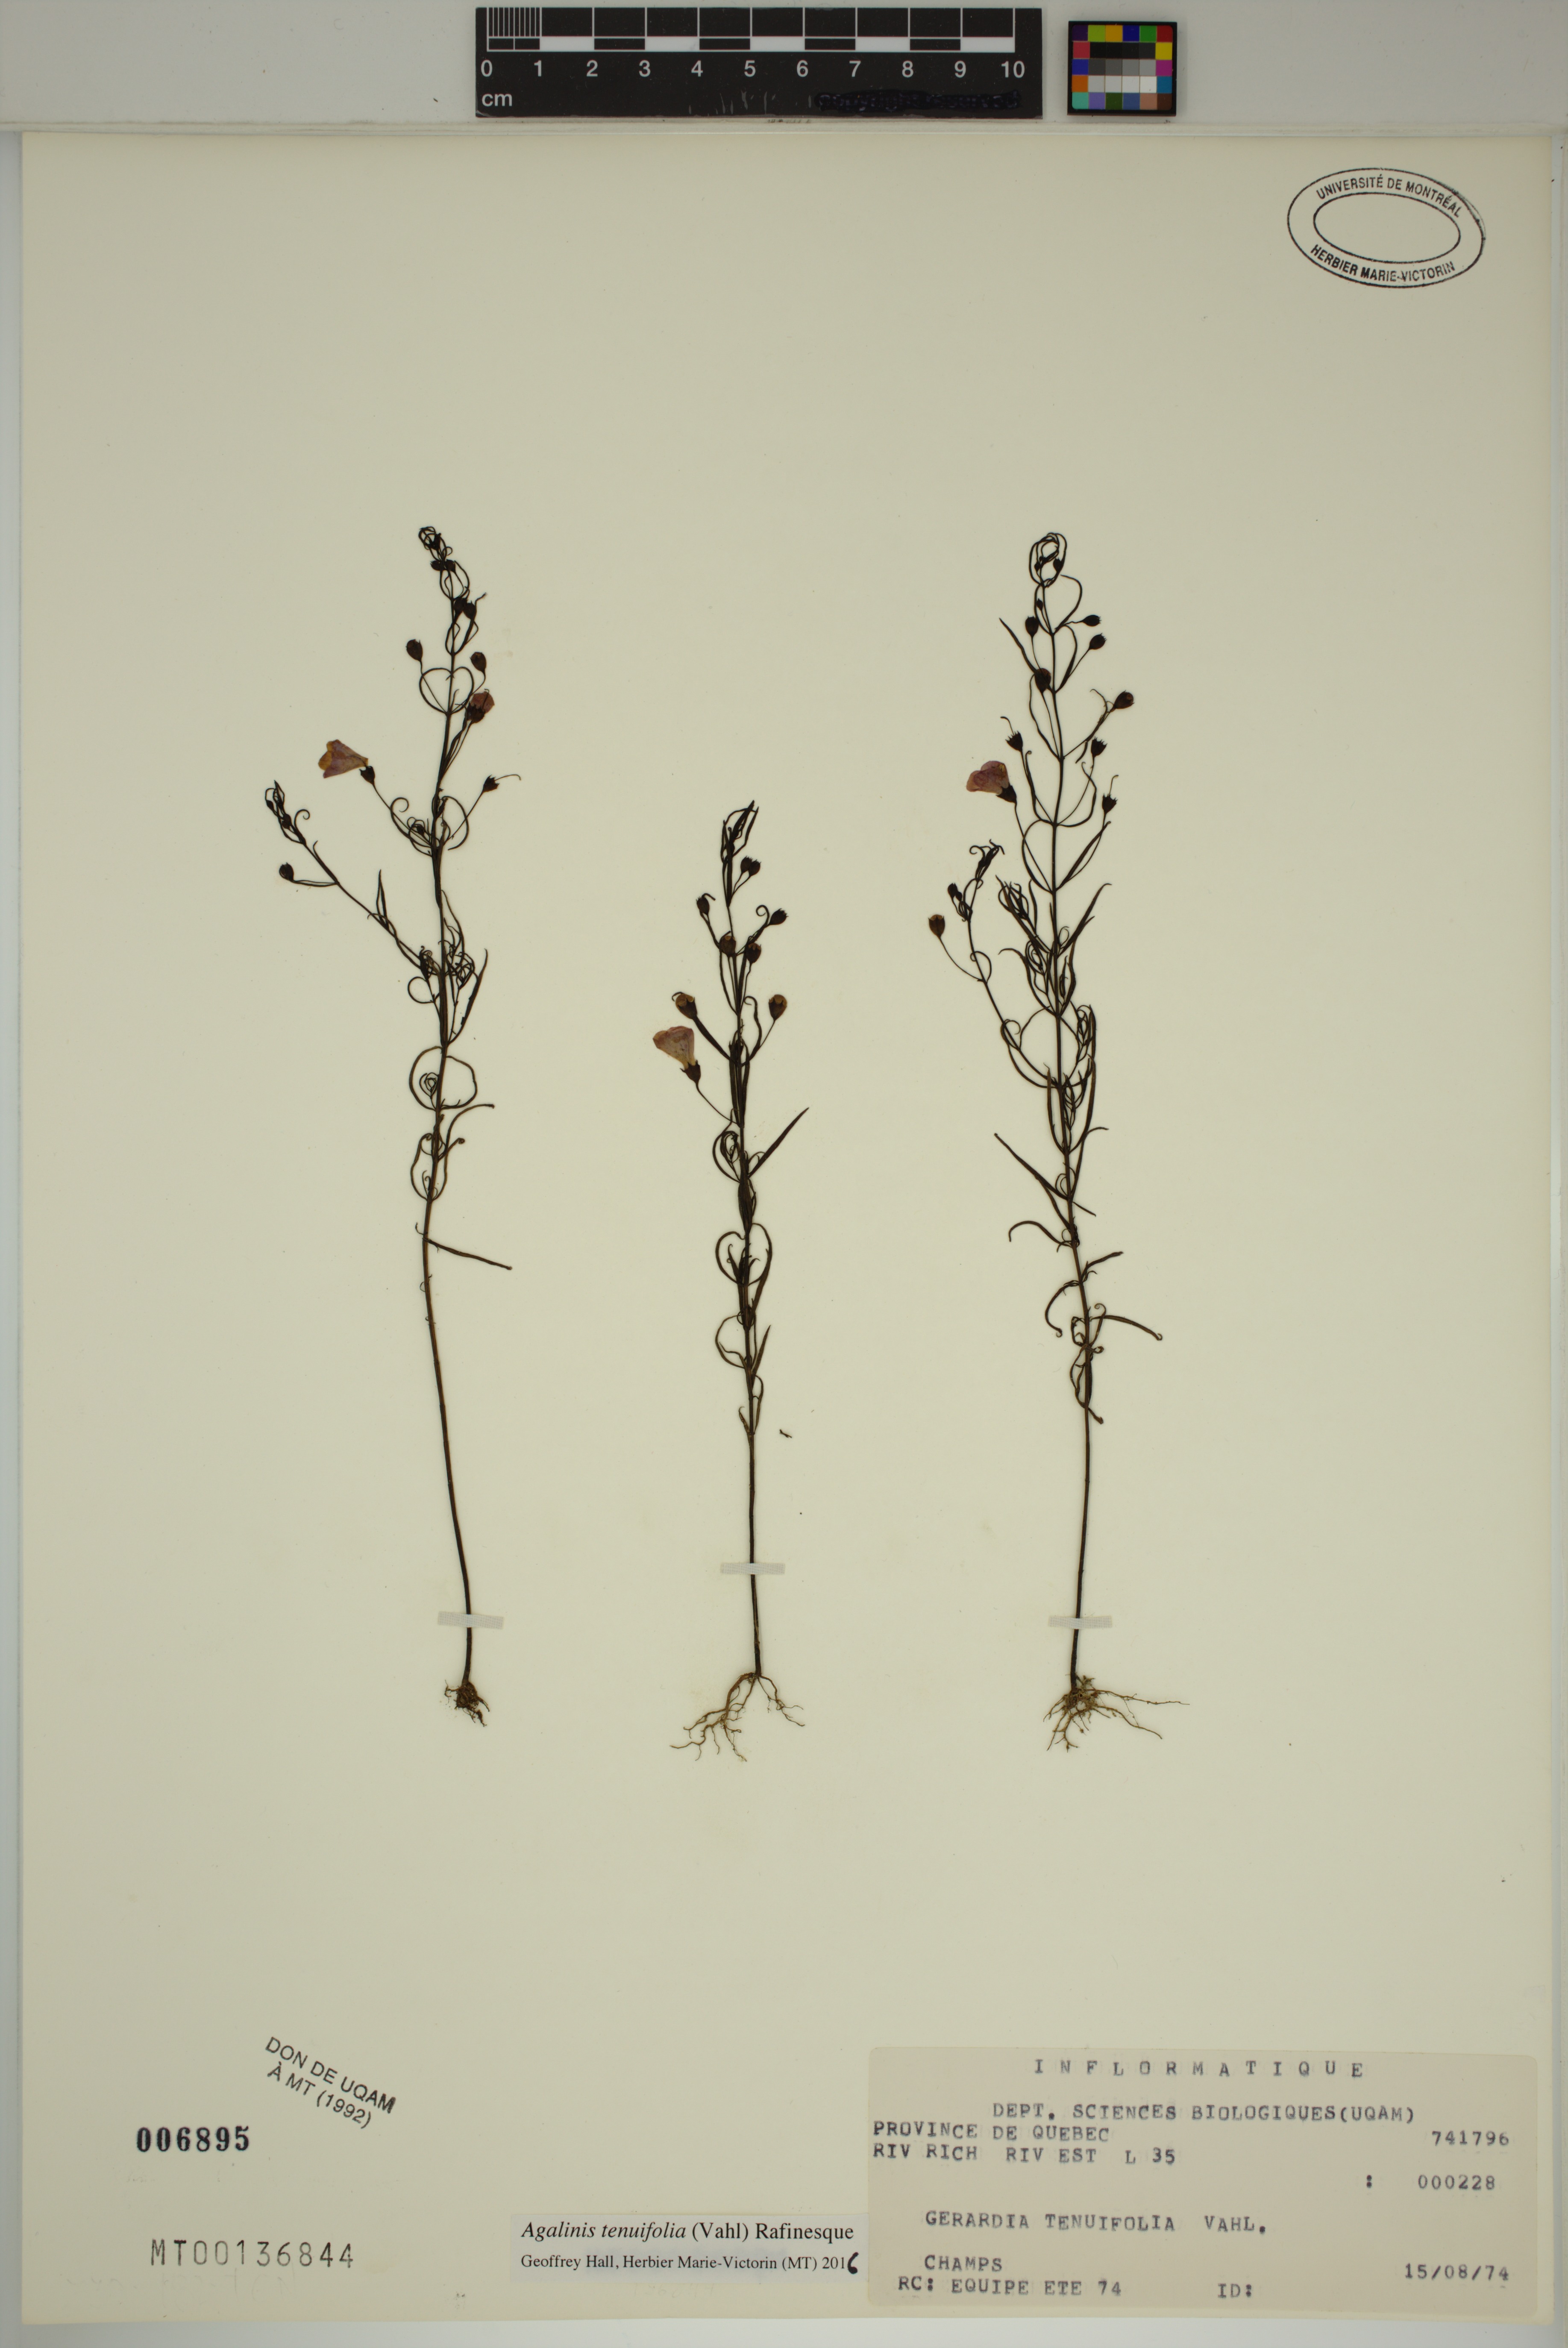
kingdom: Plantae
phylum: Tracheophyta
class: Magnoliopsida
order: Lamiales
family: Orobanchaceae
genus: Agalinis
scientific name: Agalinis tenuifolia
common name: Slender agalinis
